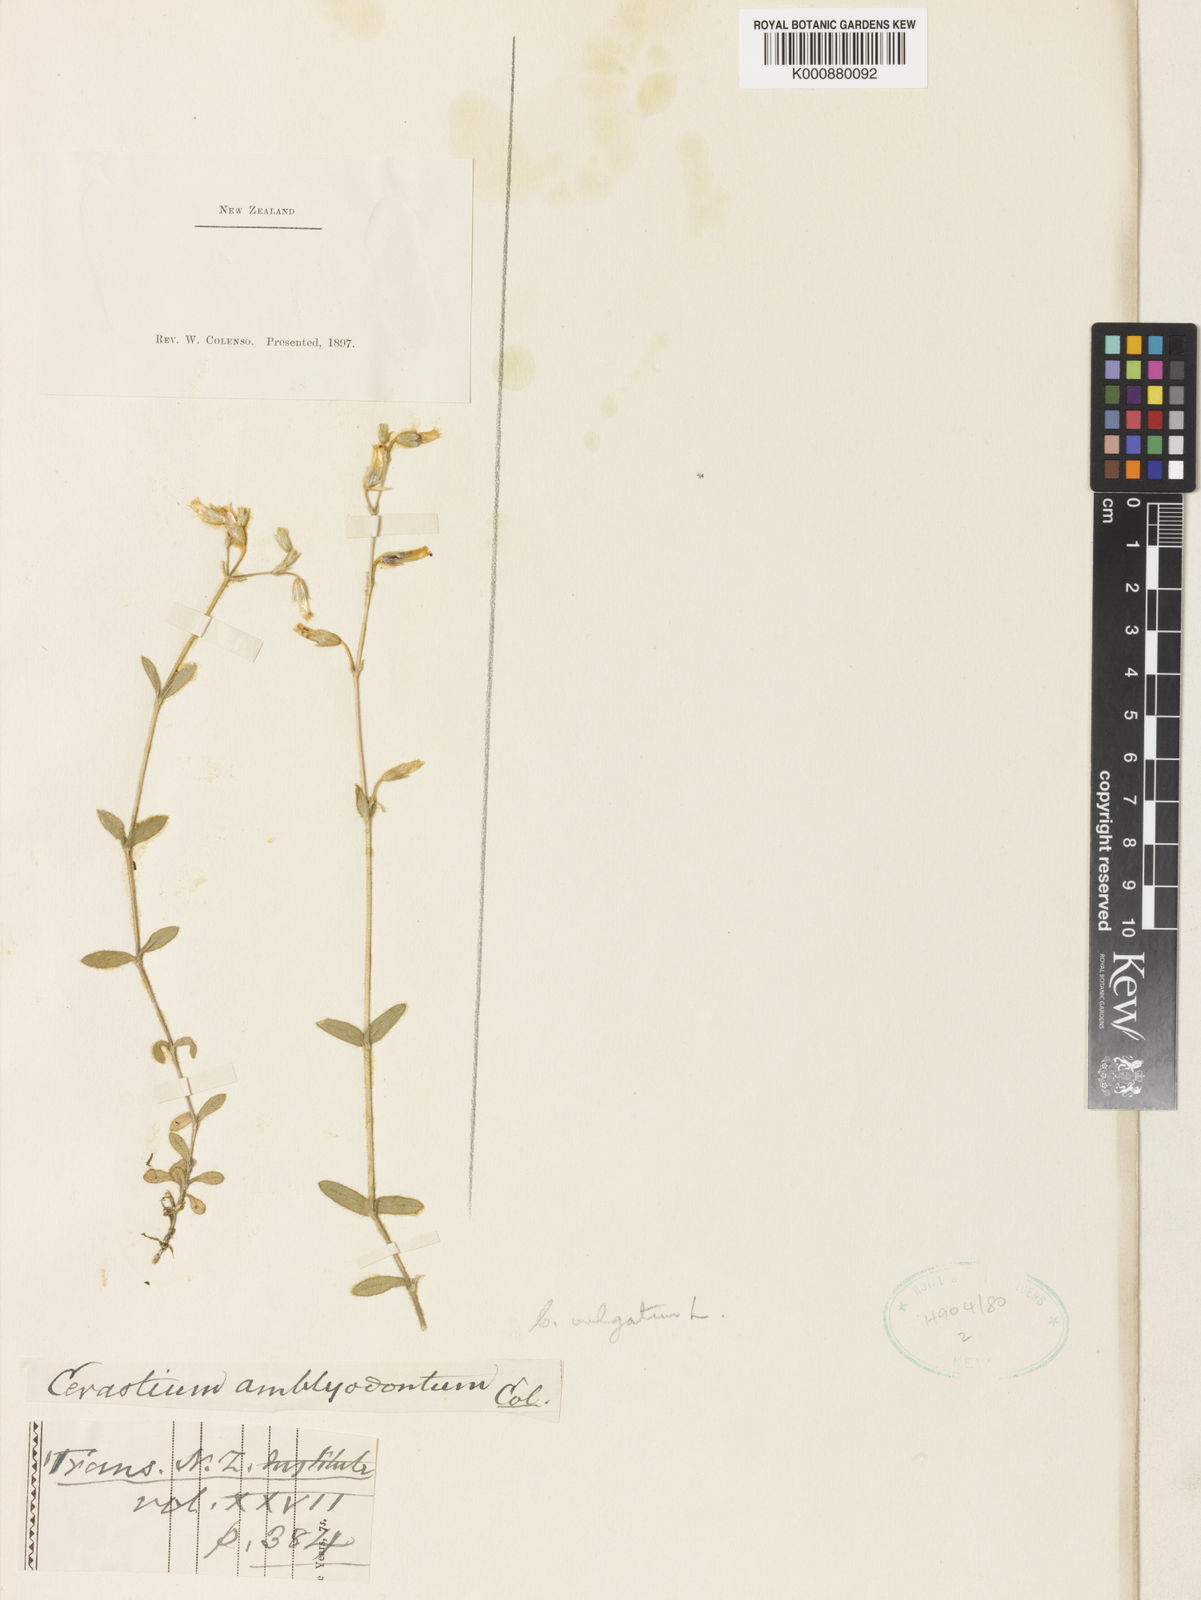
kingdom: Plantae
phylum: Tracheophyta
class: Magnoliopsida
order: Caryophyllales
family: Caryophyllaceae
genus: Cerastium
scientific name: Cerastium
